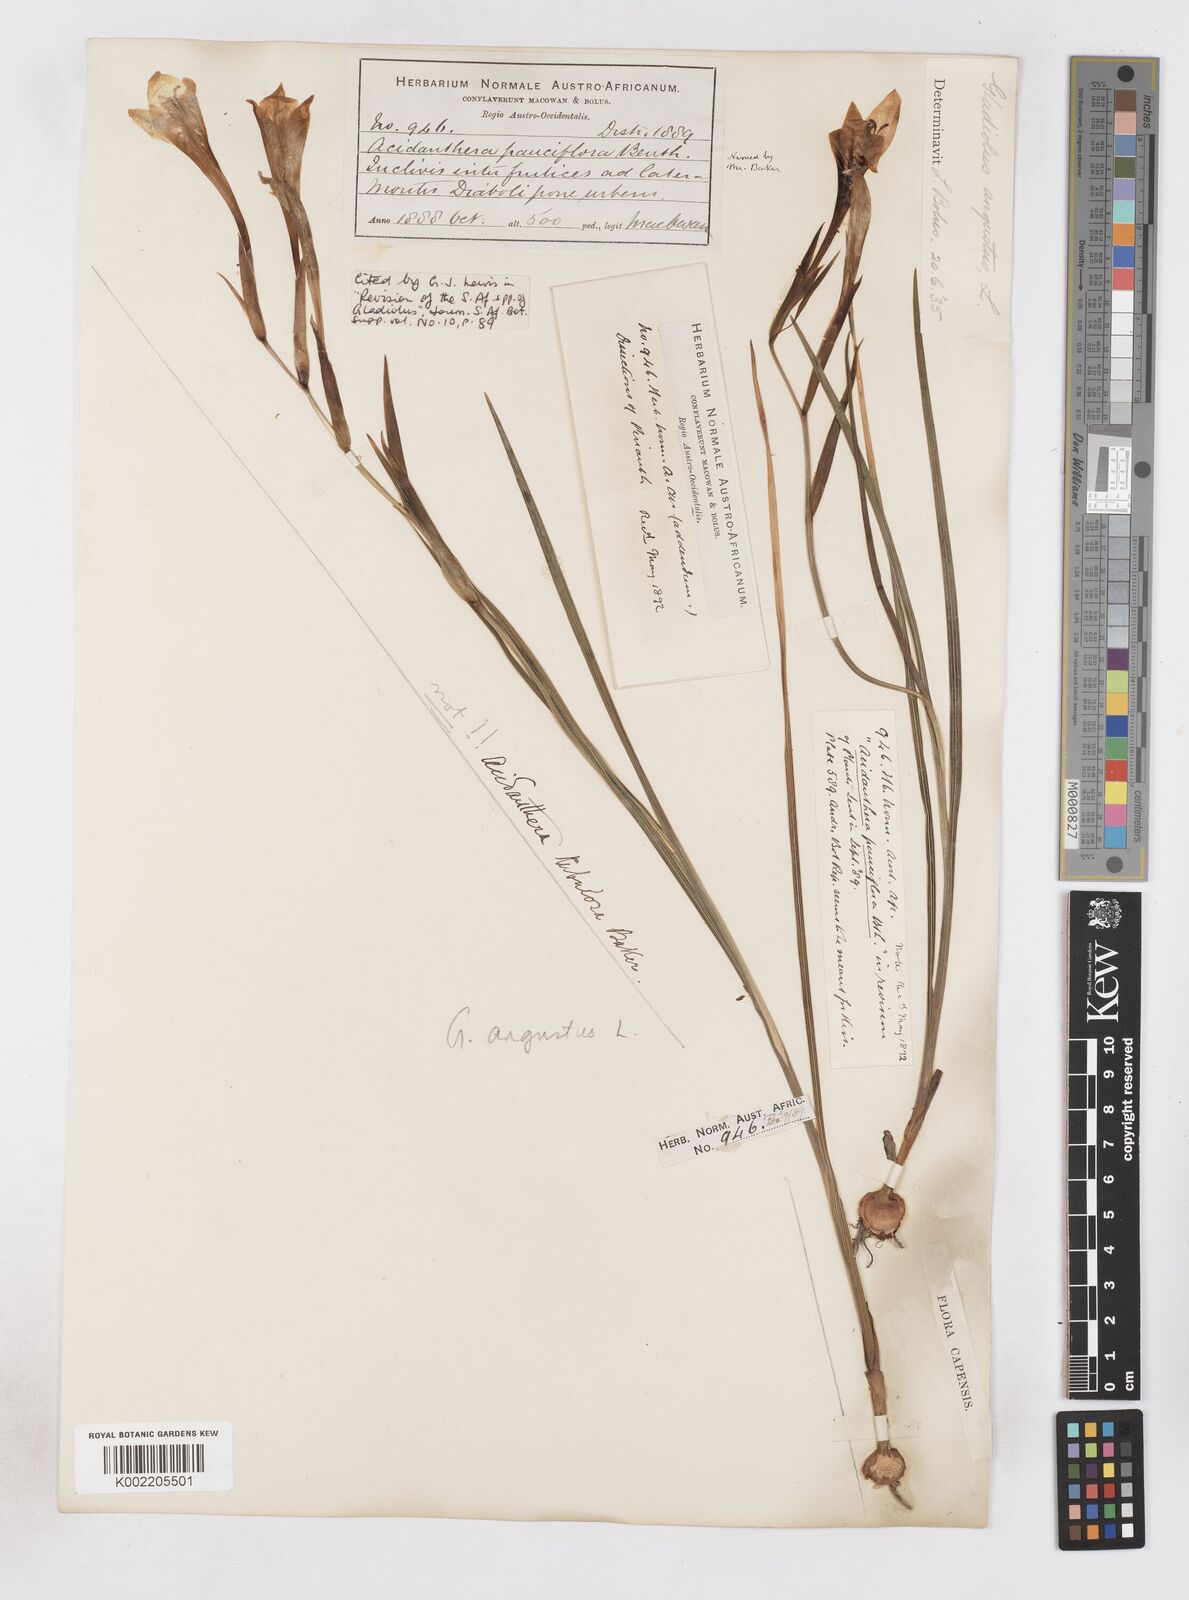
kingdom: Plantae
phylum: Tracheophyta
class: Liliopsida
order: Asparagales
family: Iridaceae
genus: Gladiolus
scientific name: Gladiolus angustus
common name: Painted-lady
